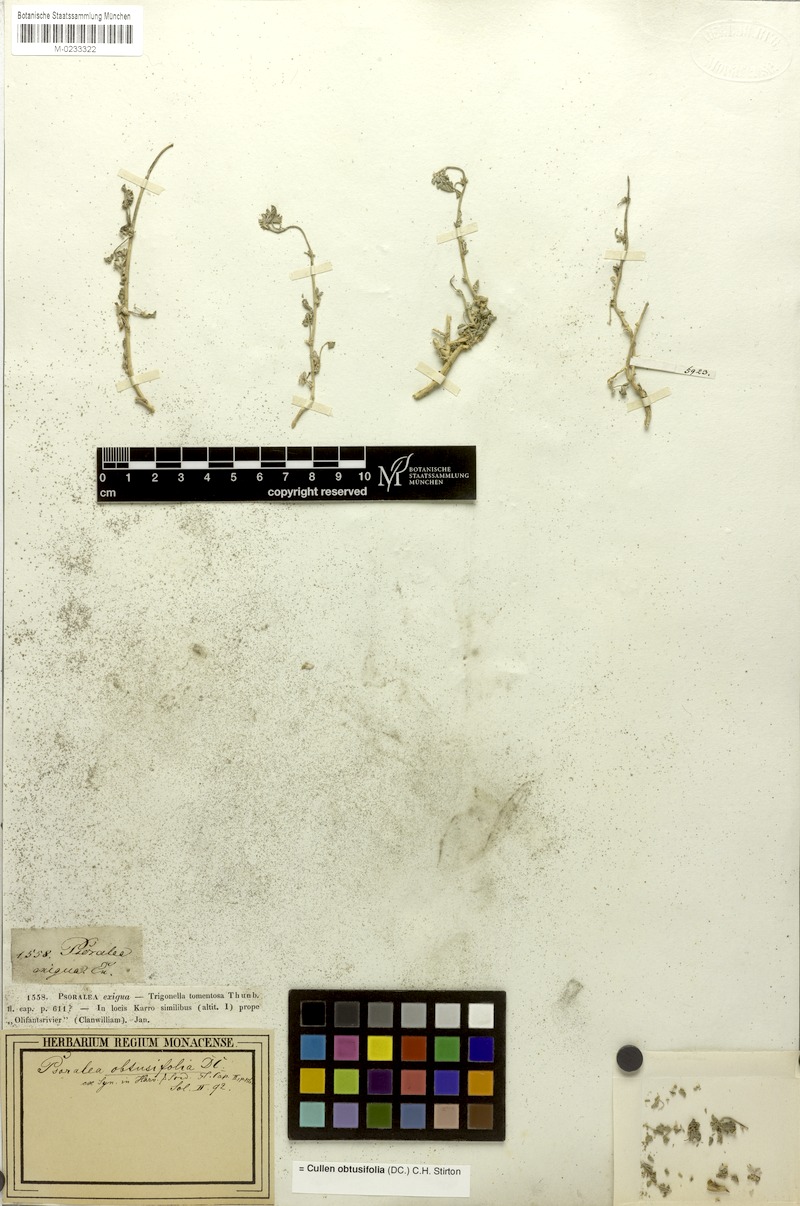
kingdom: Plantae
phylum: Tracheophyta
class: Magnoliopsida
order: Fabales
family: Fabaceae
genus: Cullen
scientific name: Cullen tomentosum
